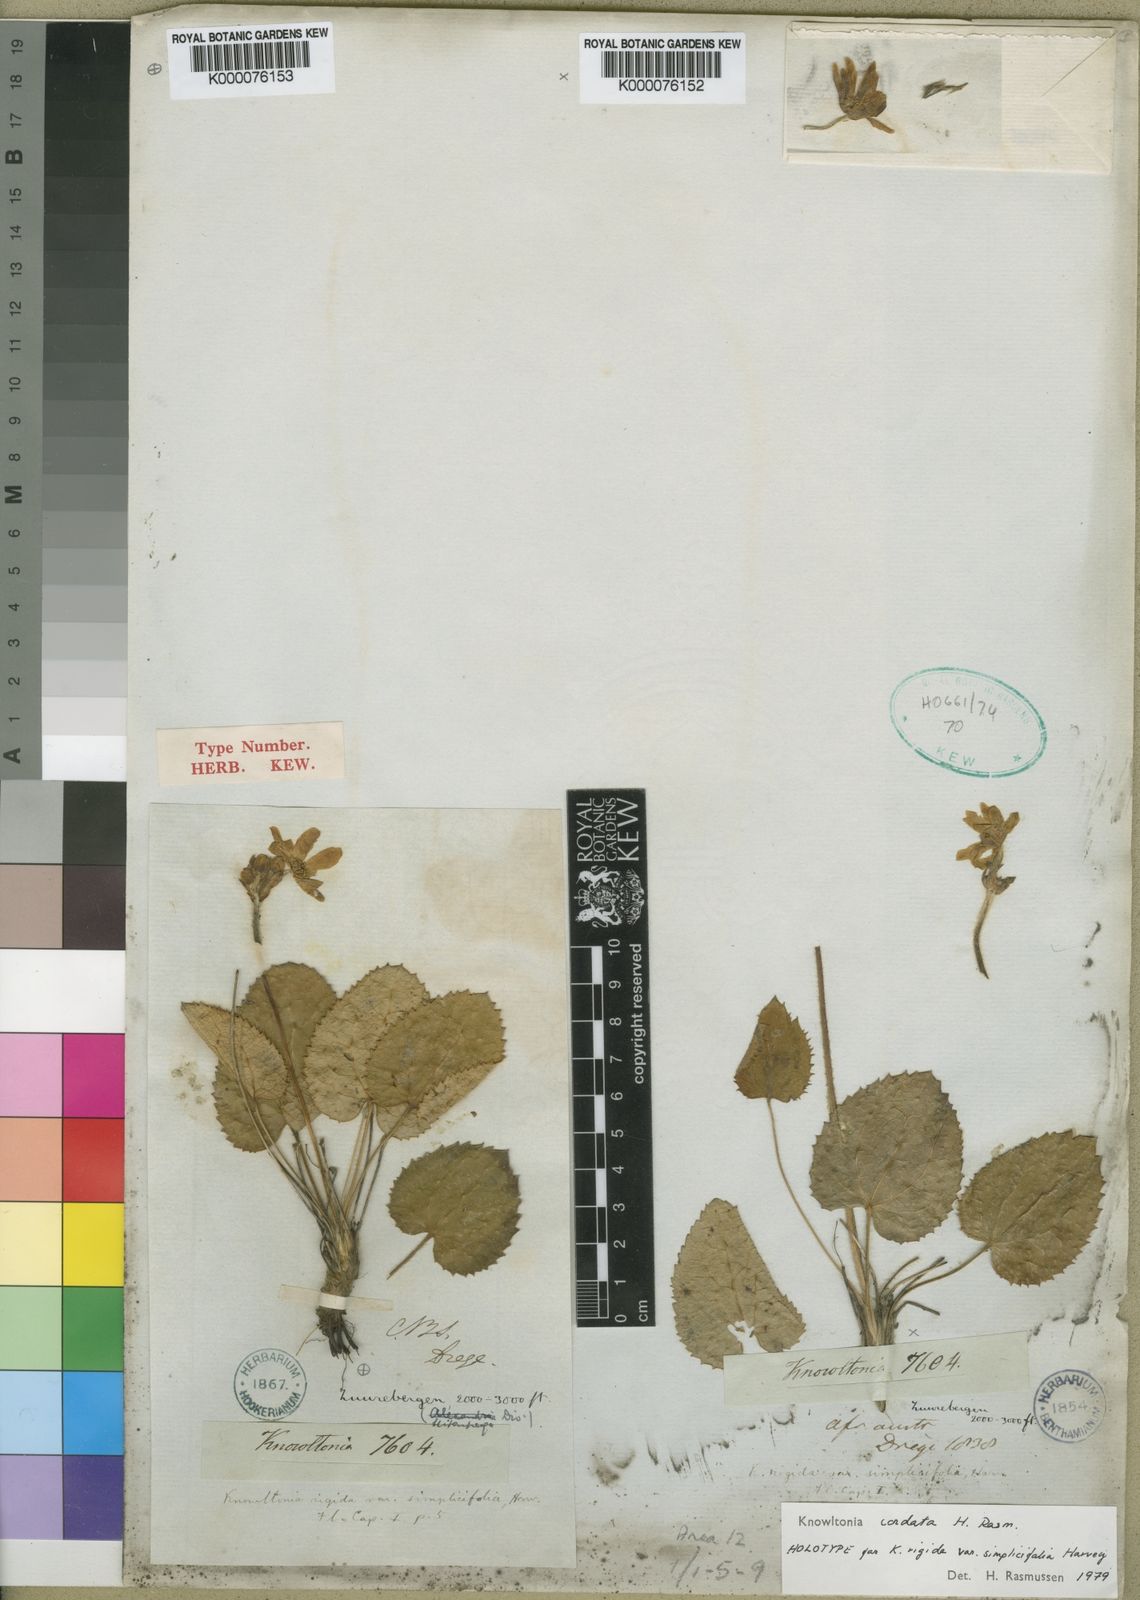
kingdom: Plantae
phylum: Tracheophyta
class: Magnoliopsida
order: Ranunculales
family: Ranunculaceae
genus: Knowltonia
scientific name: Knowltonia cordata
